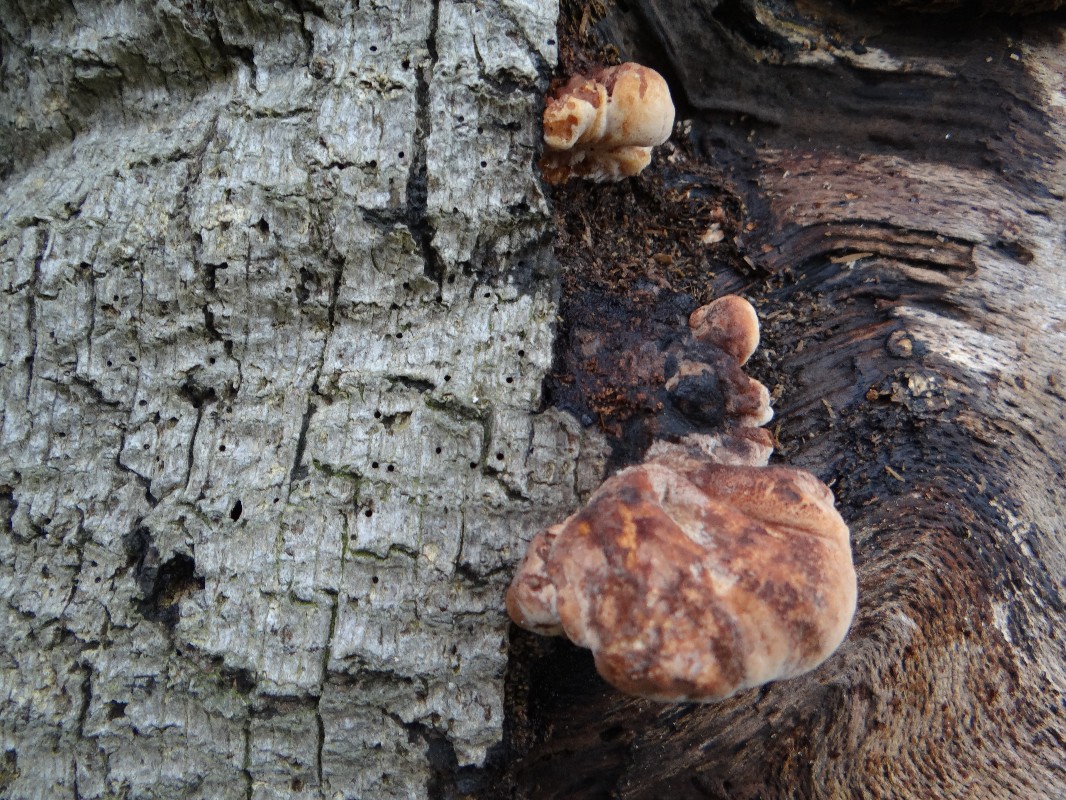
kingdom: Fungi
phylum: Basidiomycota
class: Agaricomycetes
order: Agaricales
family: Fistulinaceae
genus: Fistulina
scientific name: Fistulina hepatica
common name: oksetunge
